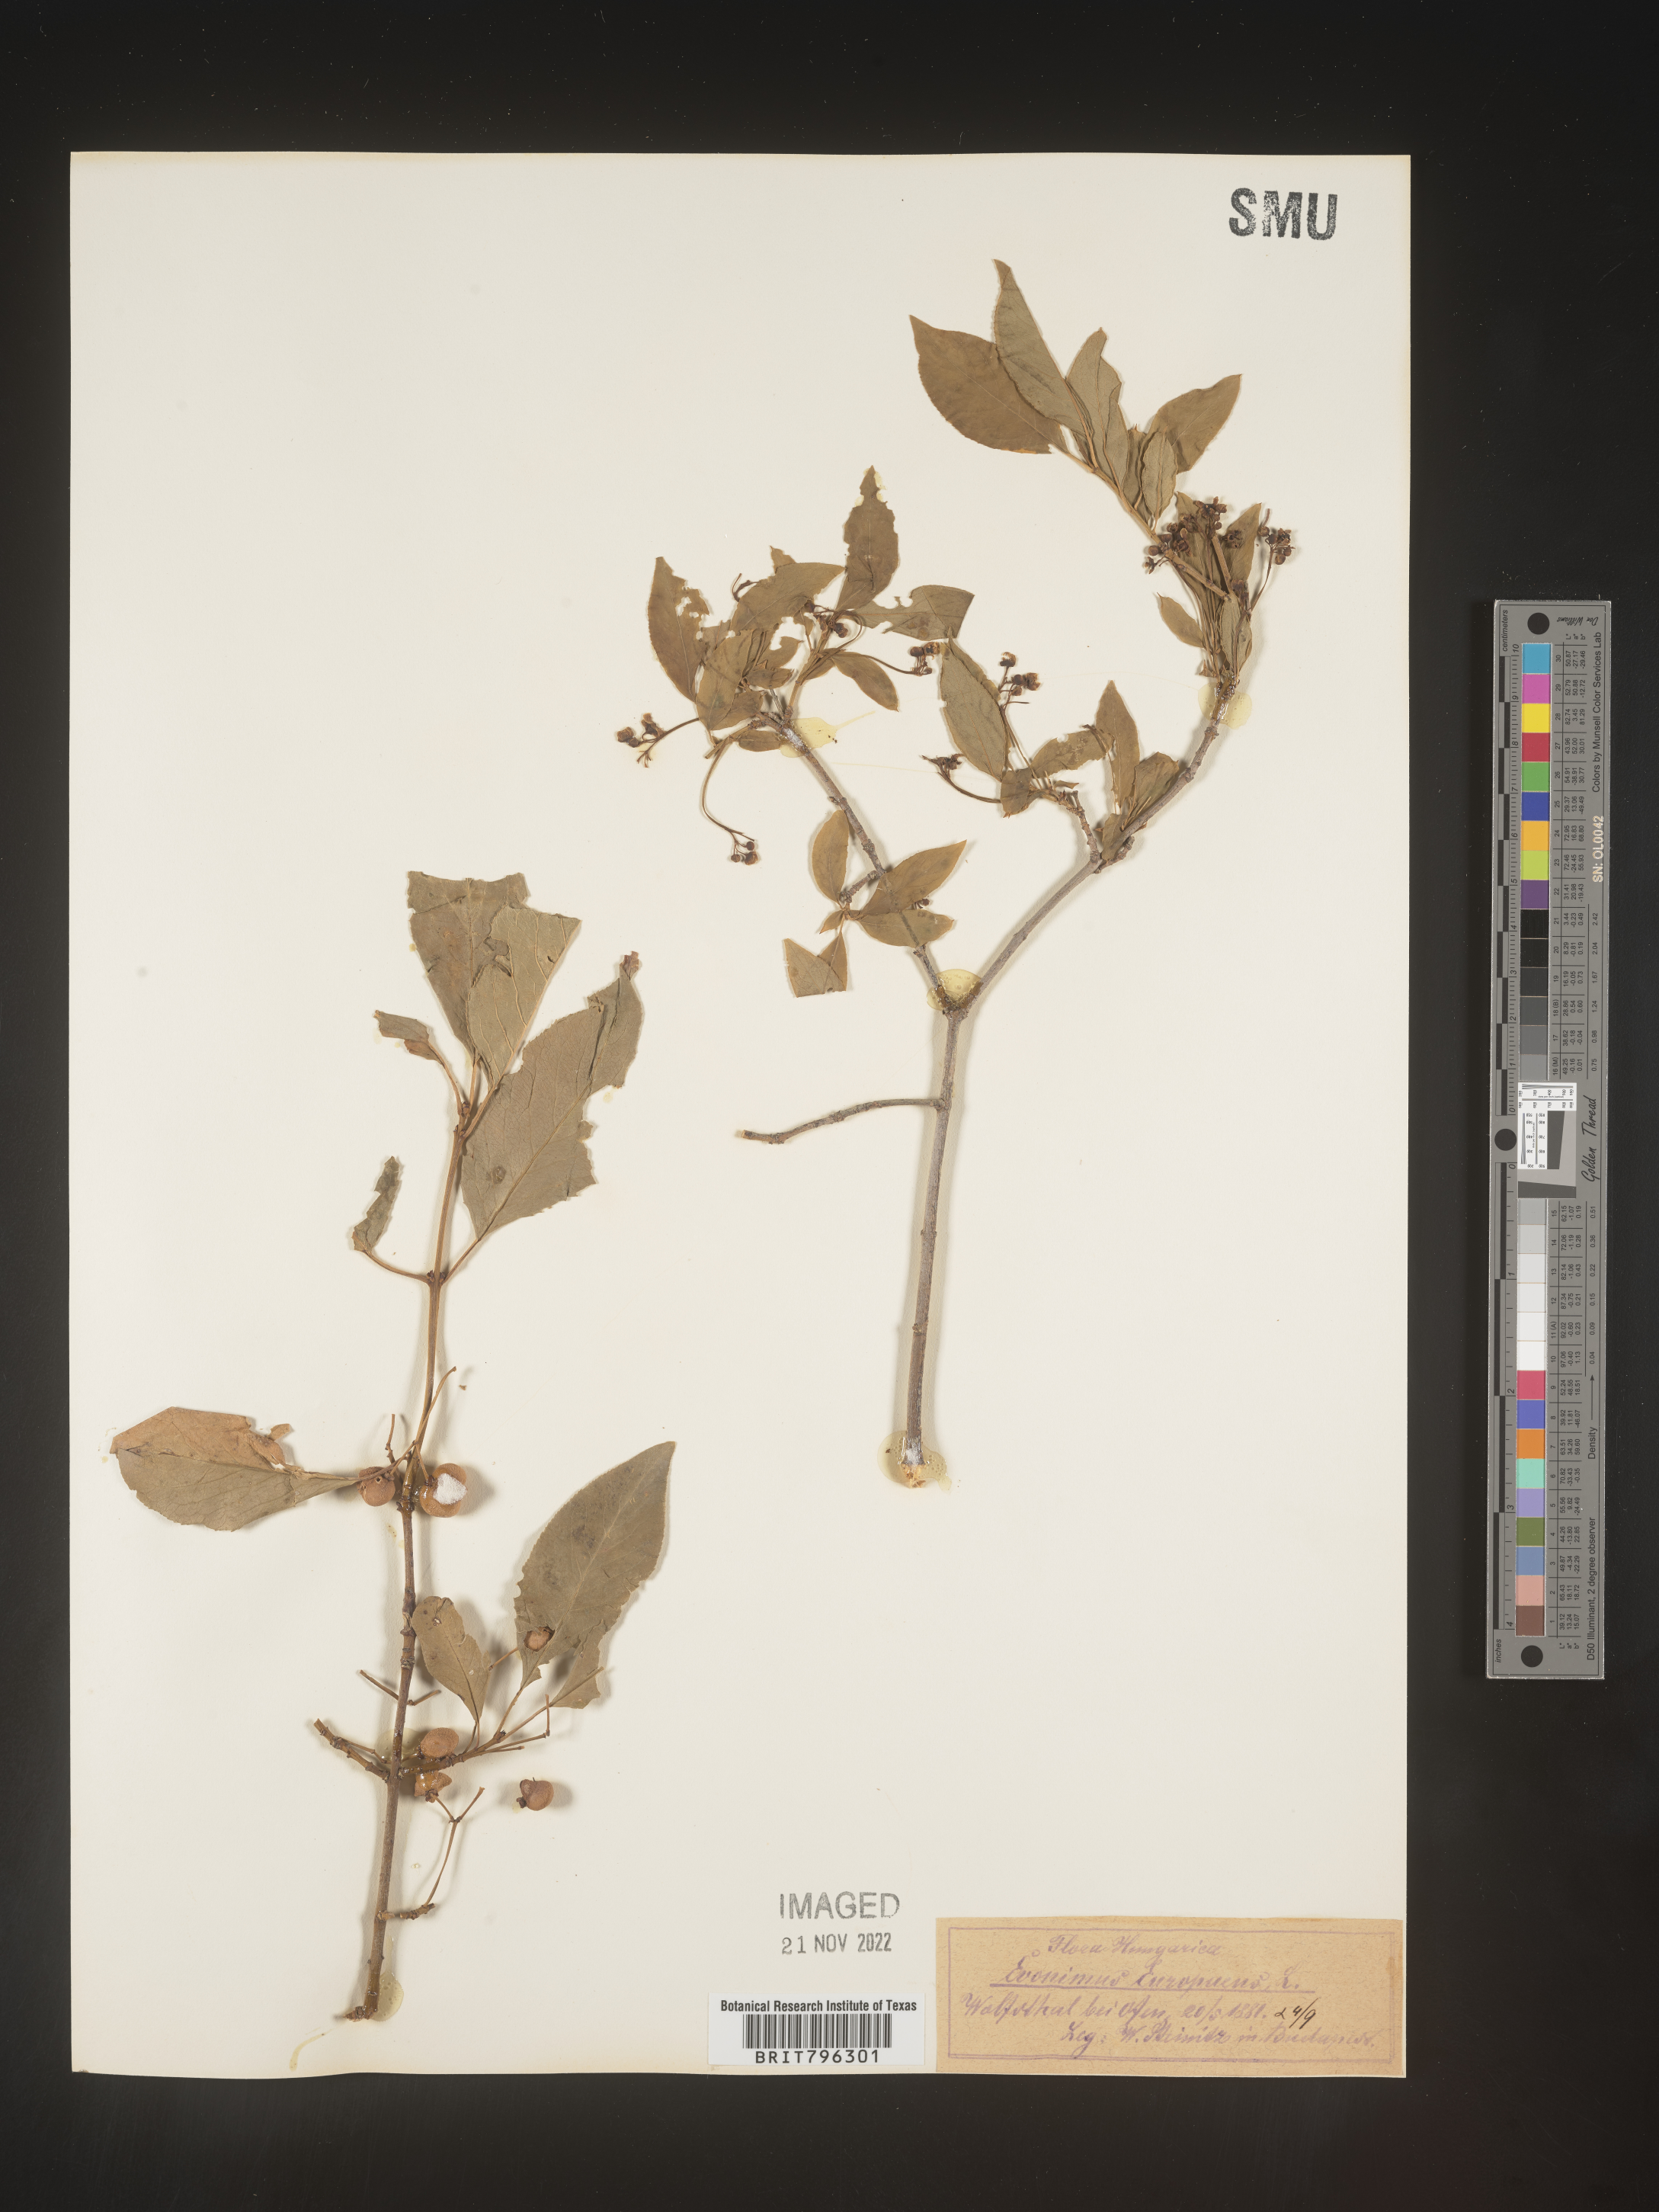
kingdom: Plantae
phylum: Tracheophyta
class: Magnoliopsida
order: Celastrales
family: Celastraceae
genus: Euonymus
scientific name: Euonymus
